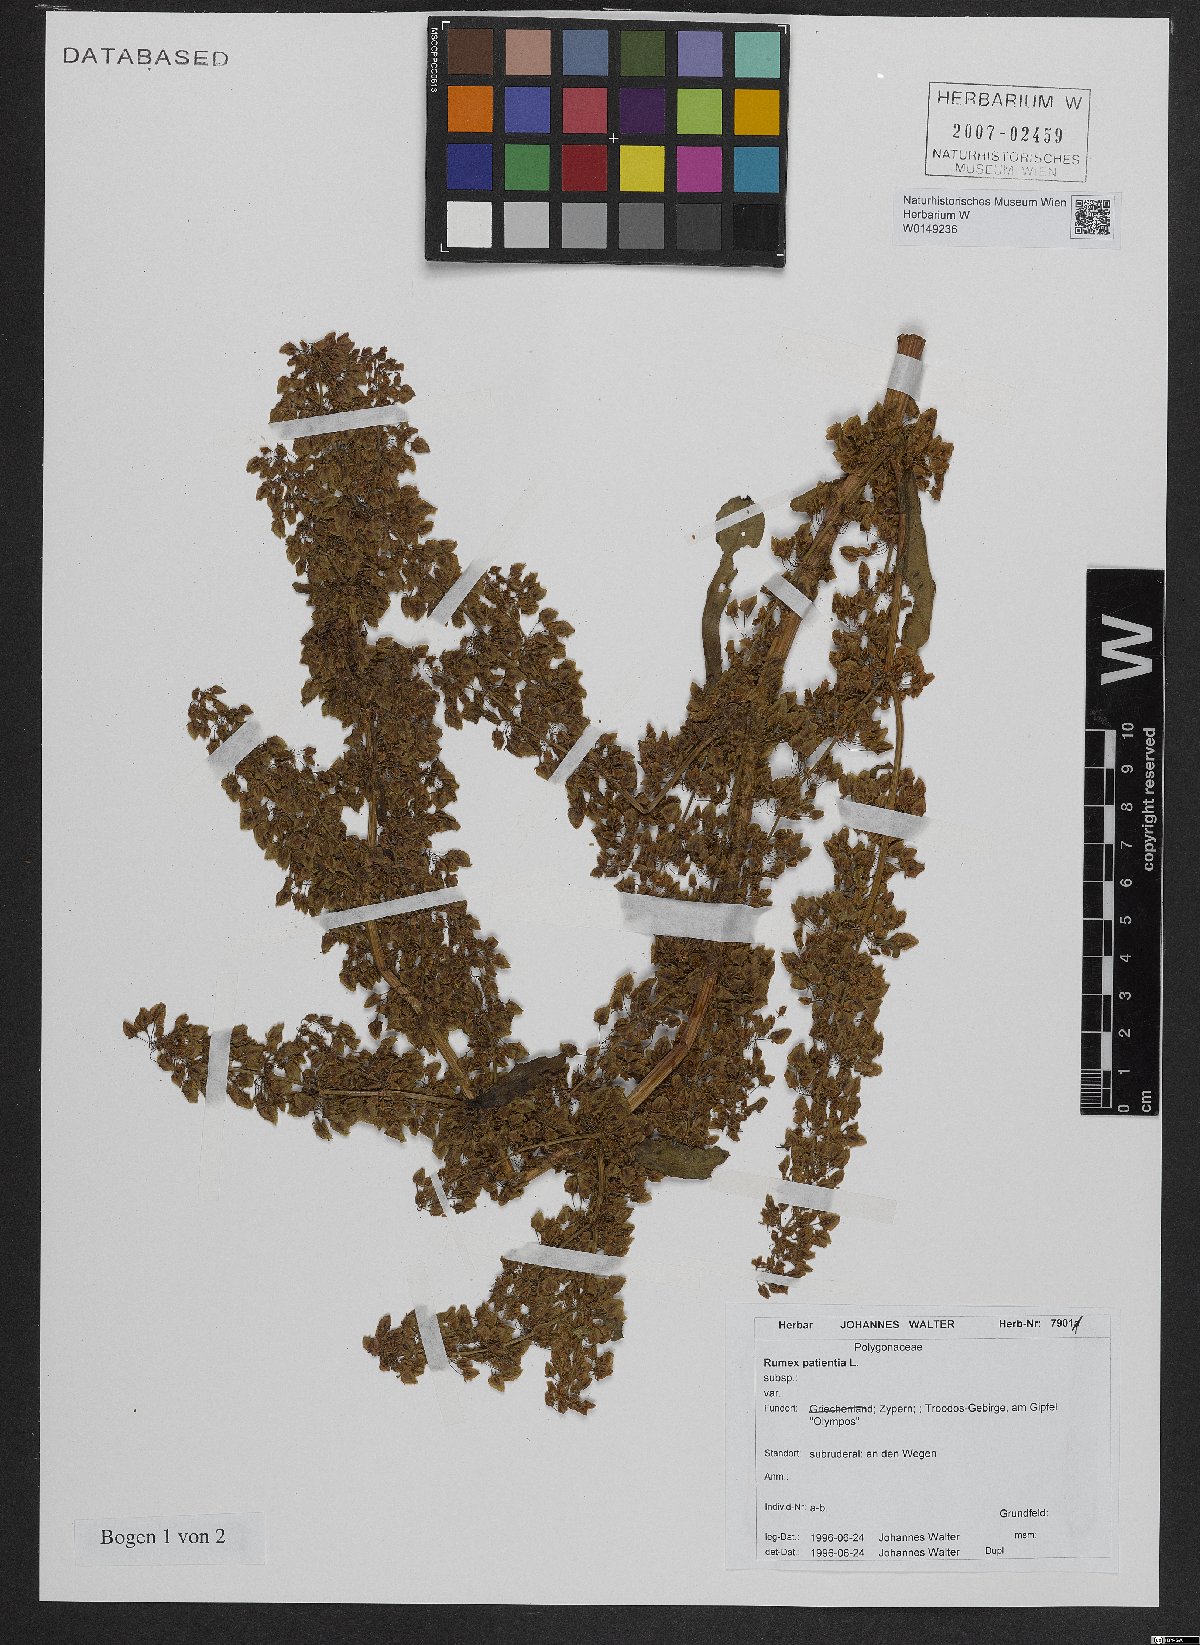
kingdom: Plantae
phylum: Tracheophyta
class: Magnoliopsida
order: Caryophyllales
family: Polygonaceae
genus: Rumex
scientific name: Rumex patientia
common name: Patience dock
